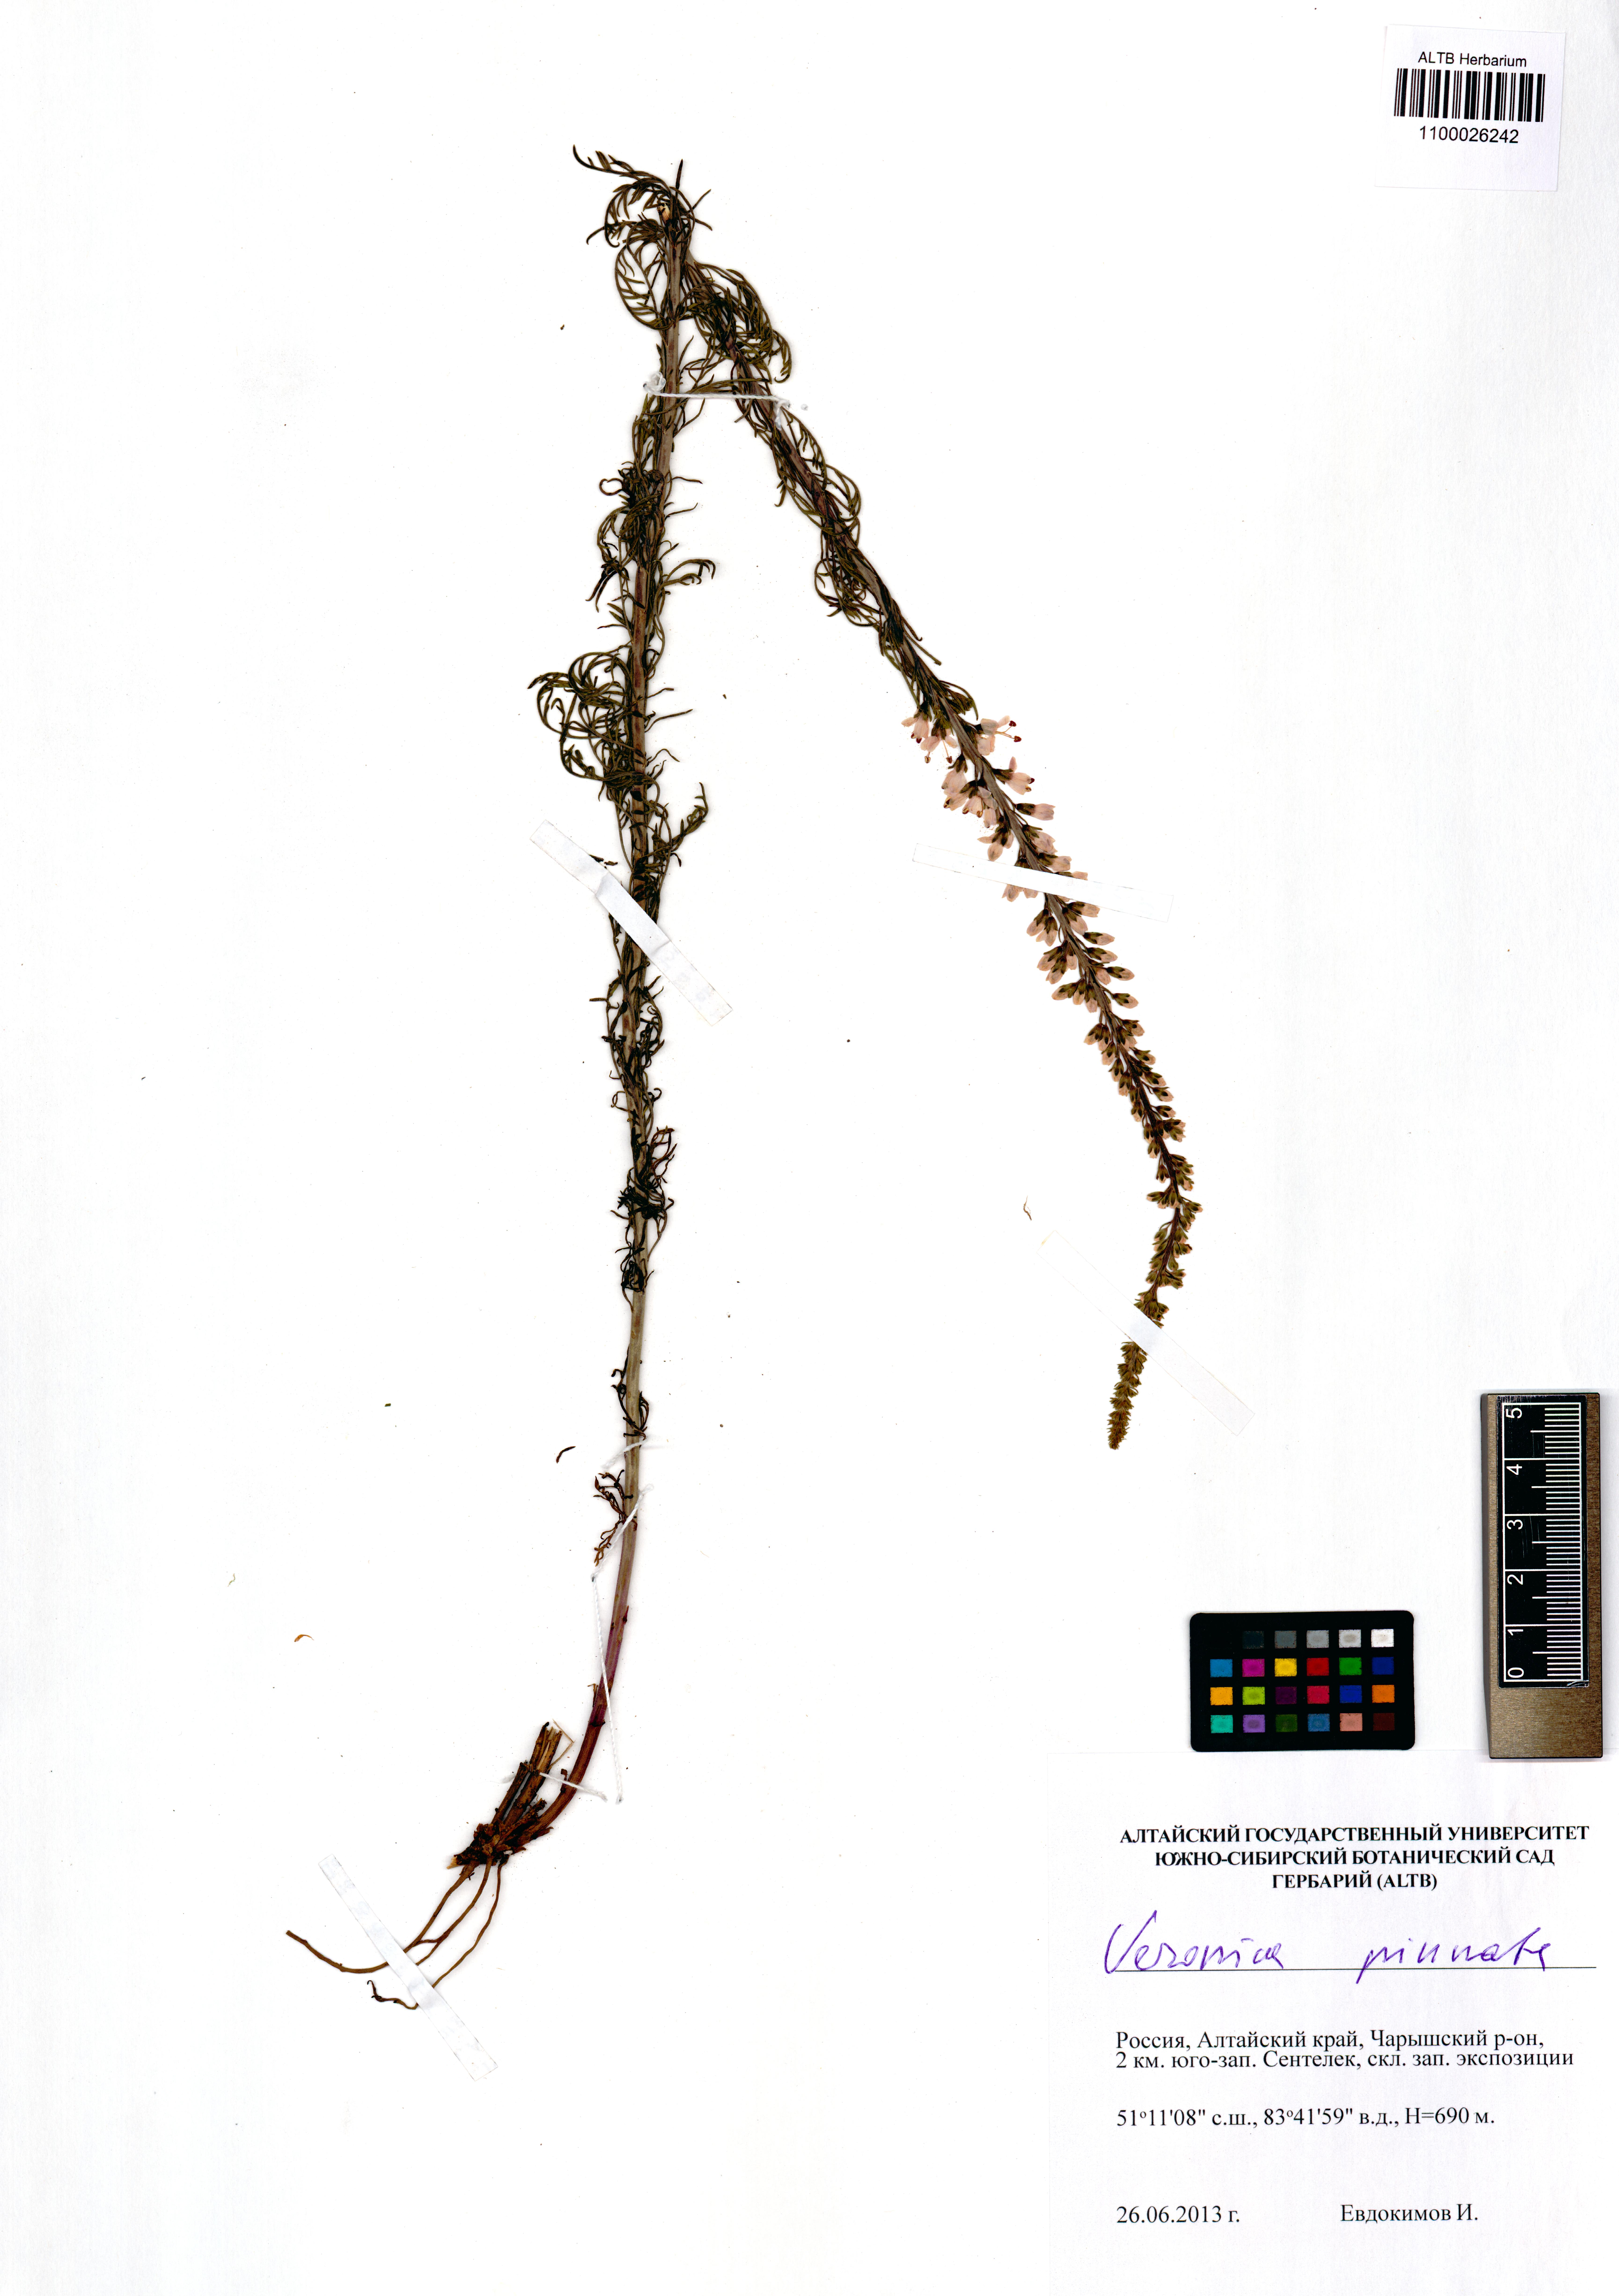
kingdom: Plantae
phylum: Tracheophyta
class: Magnoliopsida
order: Lamiales
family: Plantaginaceae
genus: Veronica
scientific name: Veronica pinnata
